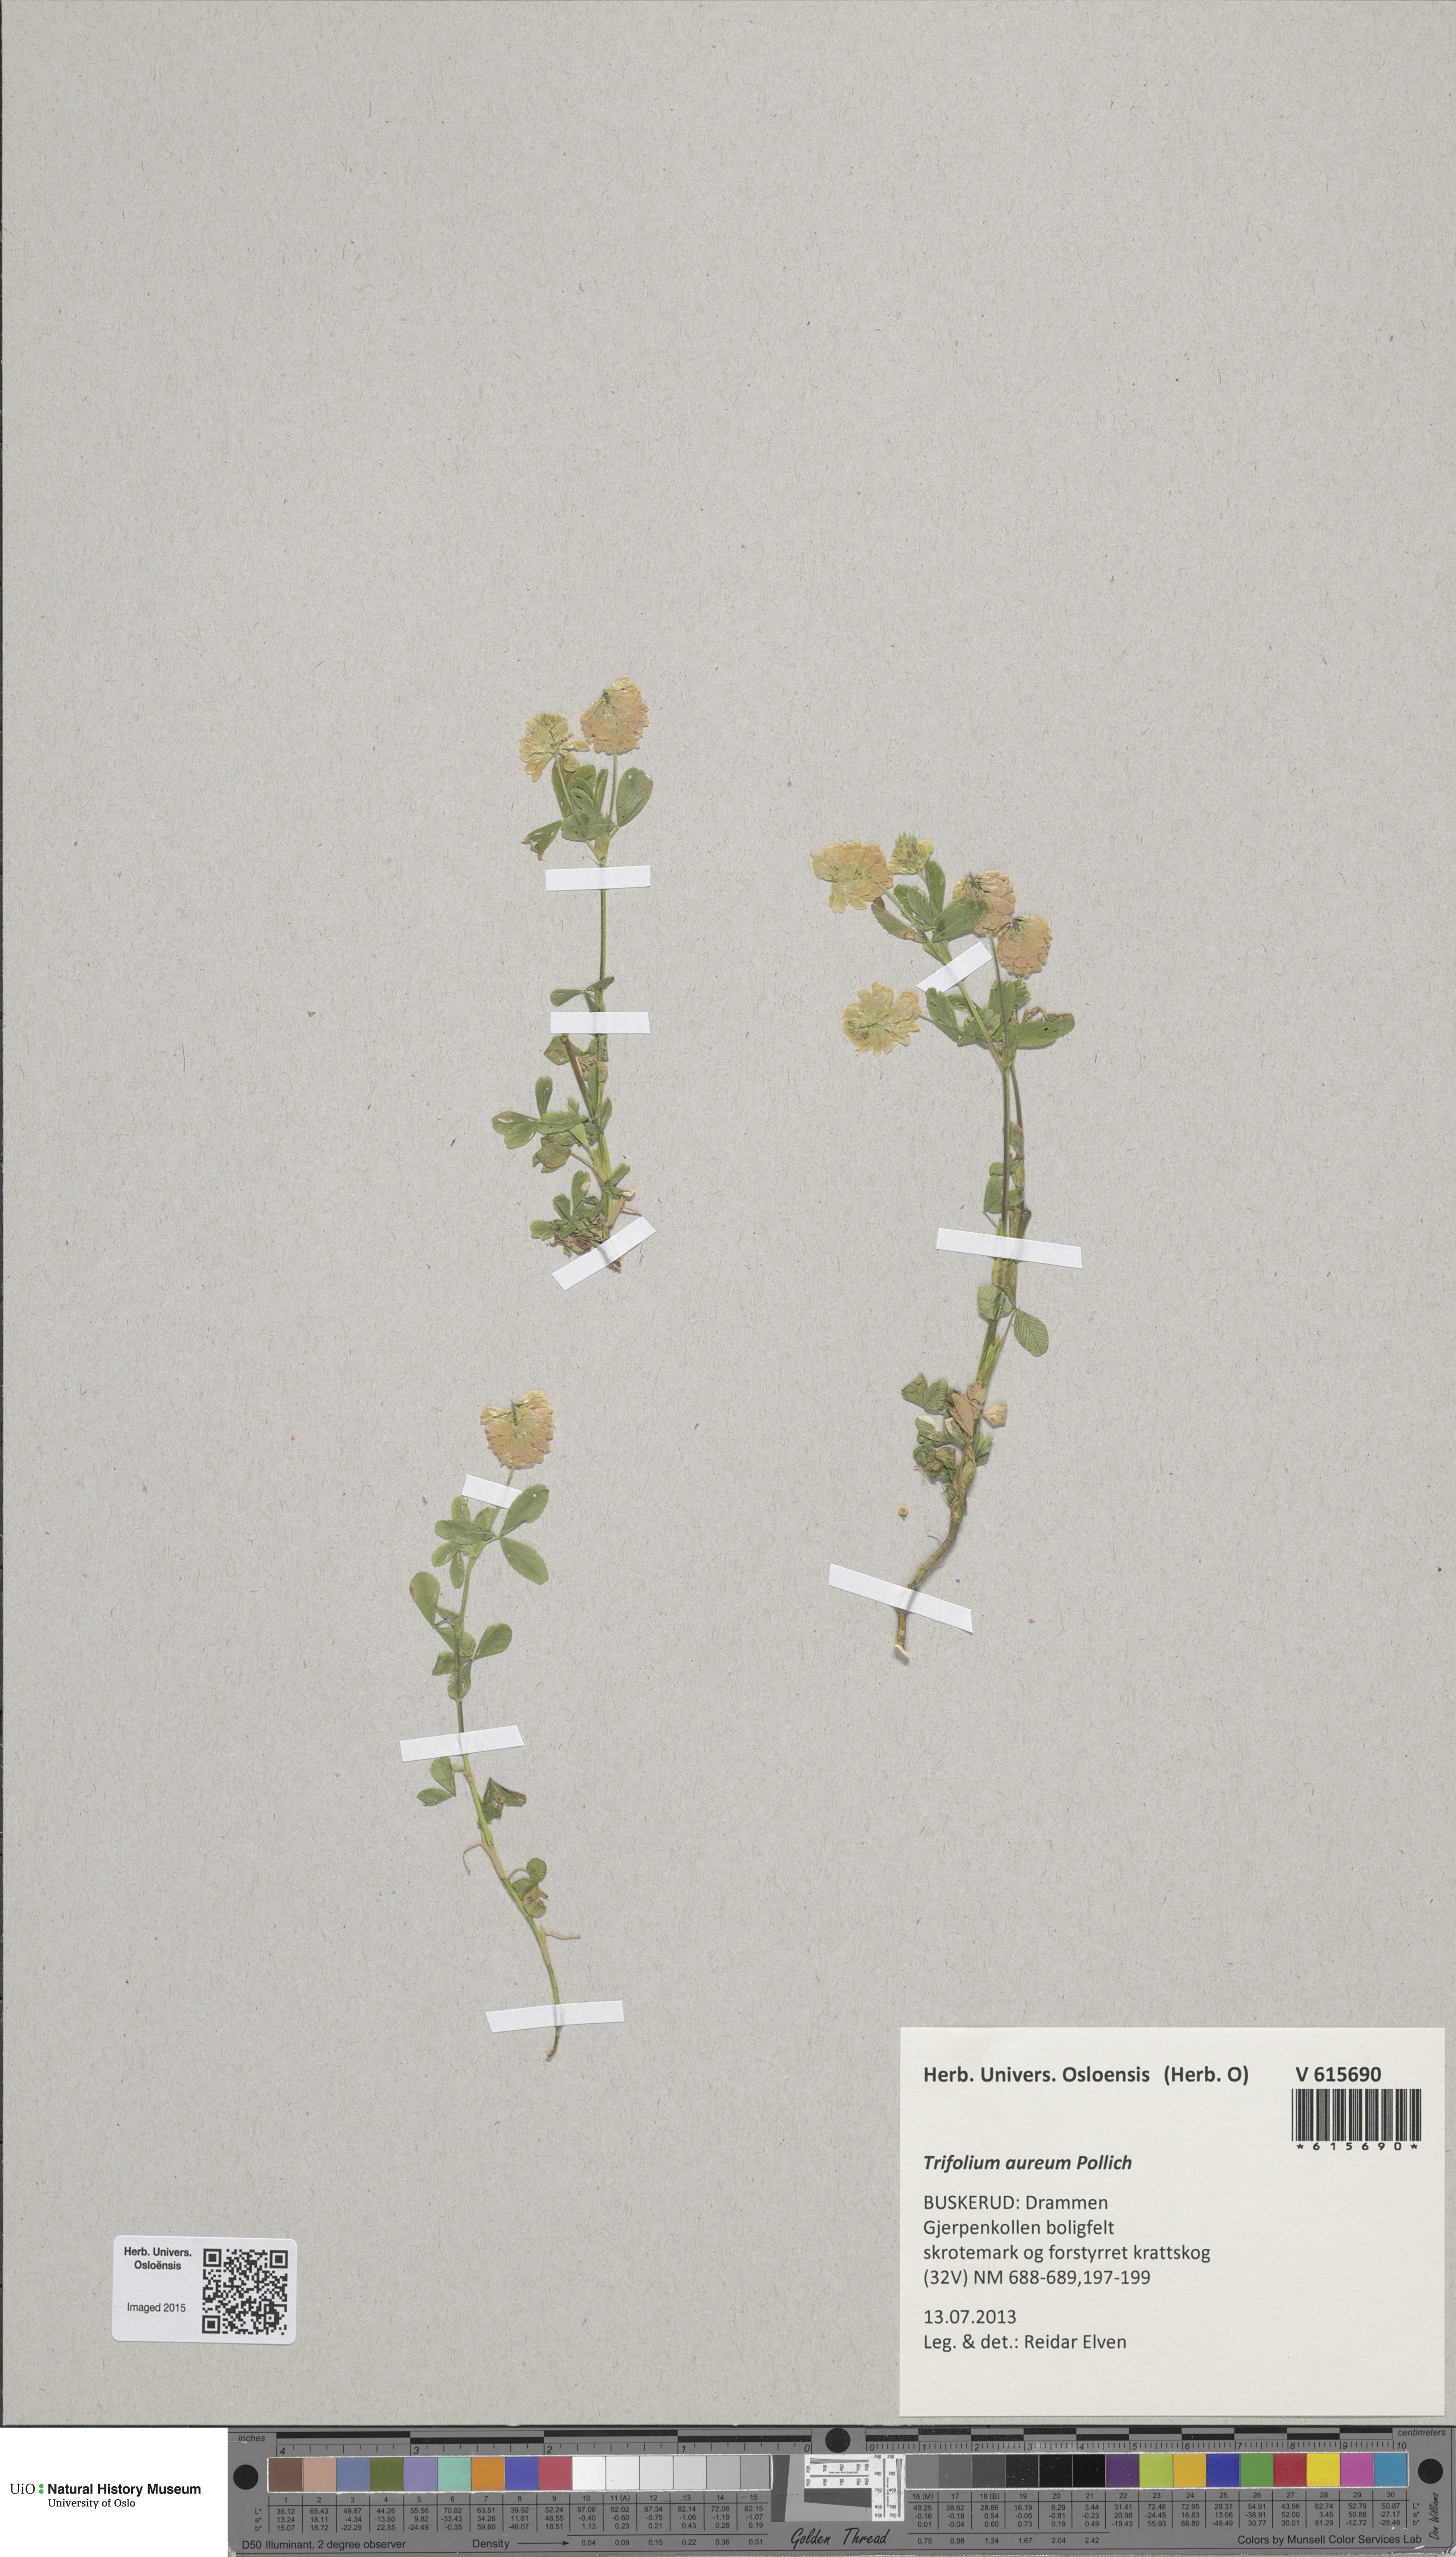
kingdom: Plantae
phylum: Tracheophyta
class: Magnoliopsida
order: Fabales
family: Fabaceae
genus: Trifolium
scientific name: Trifolium aureum
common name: Golden clover
